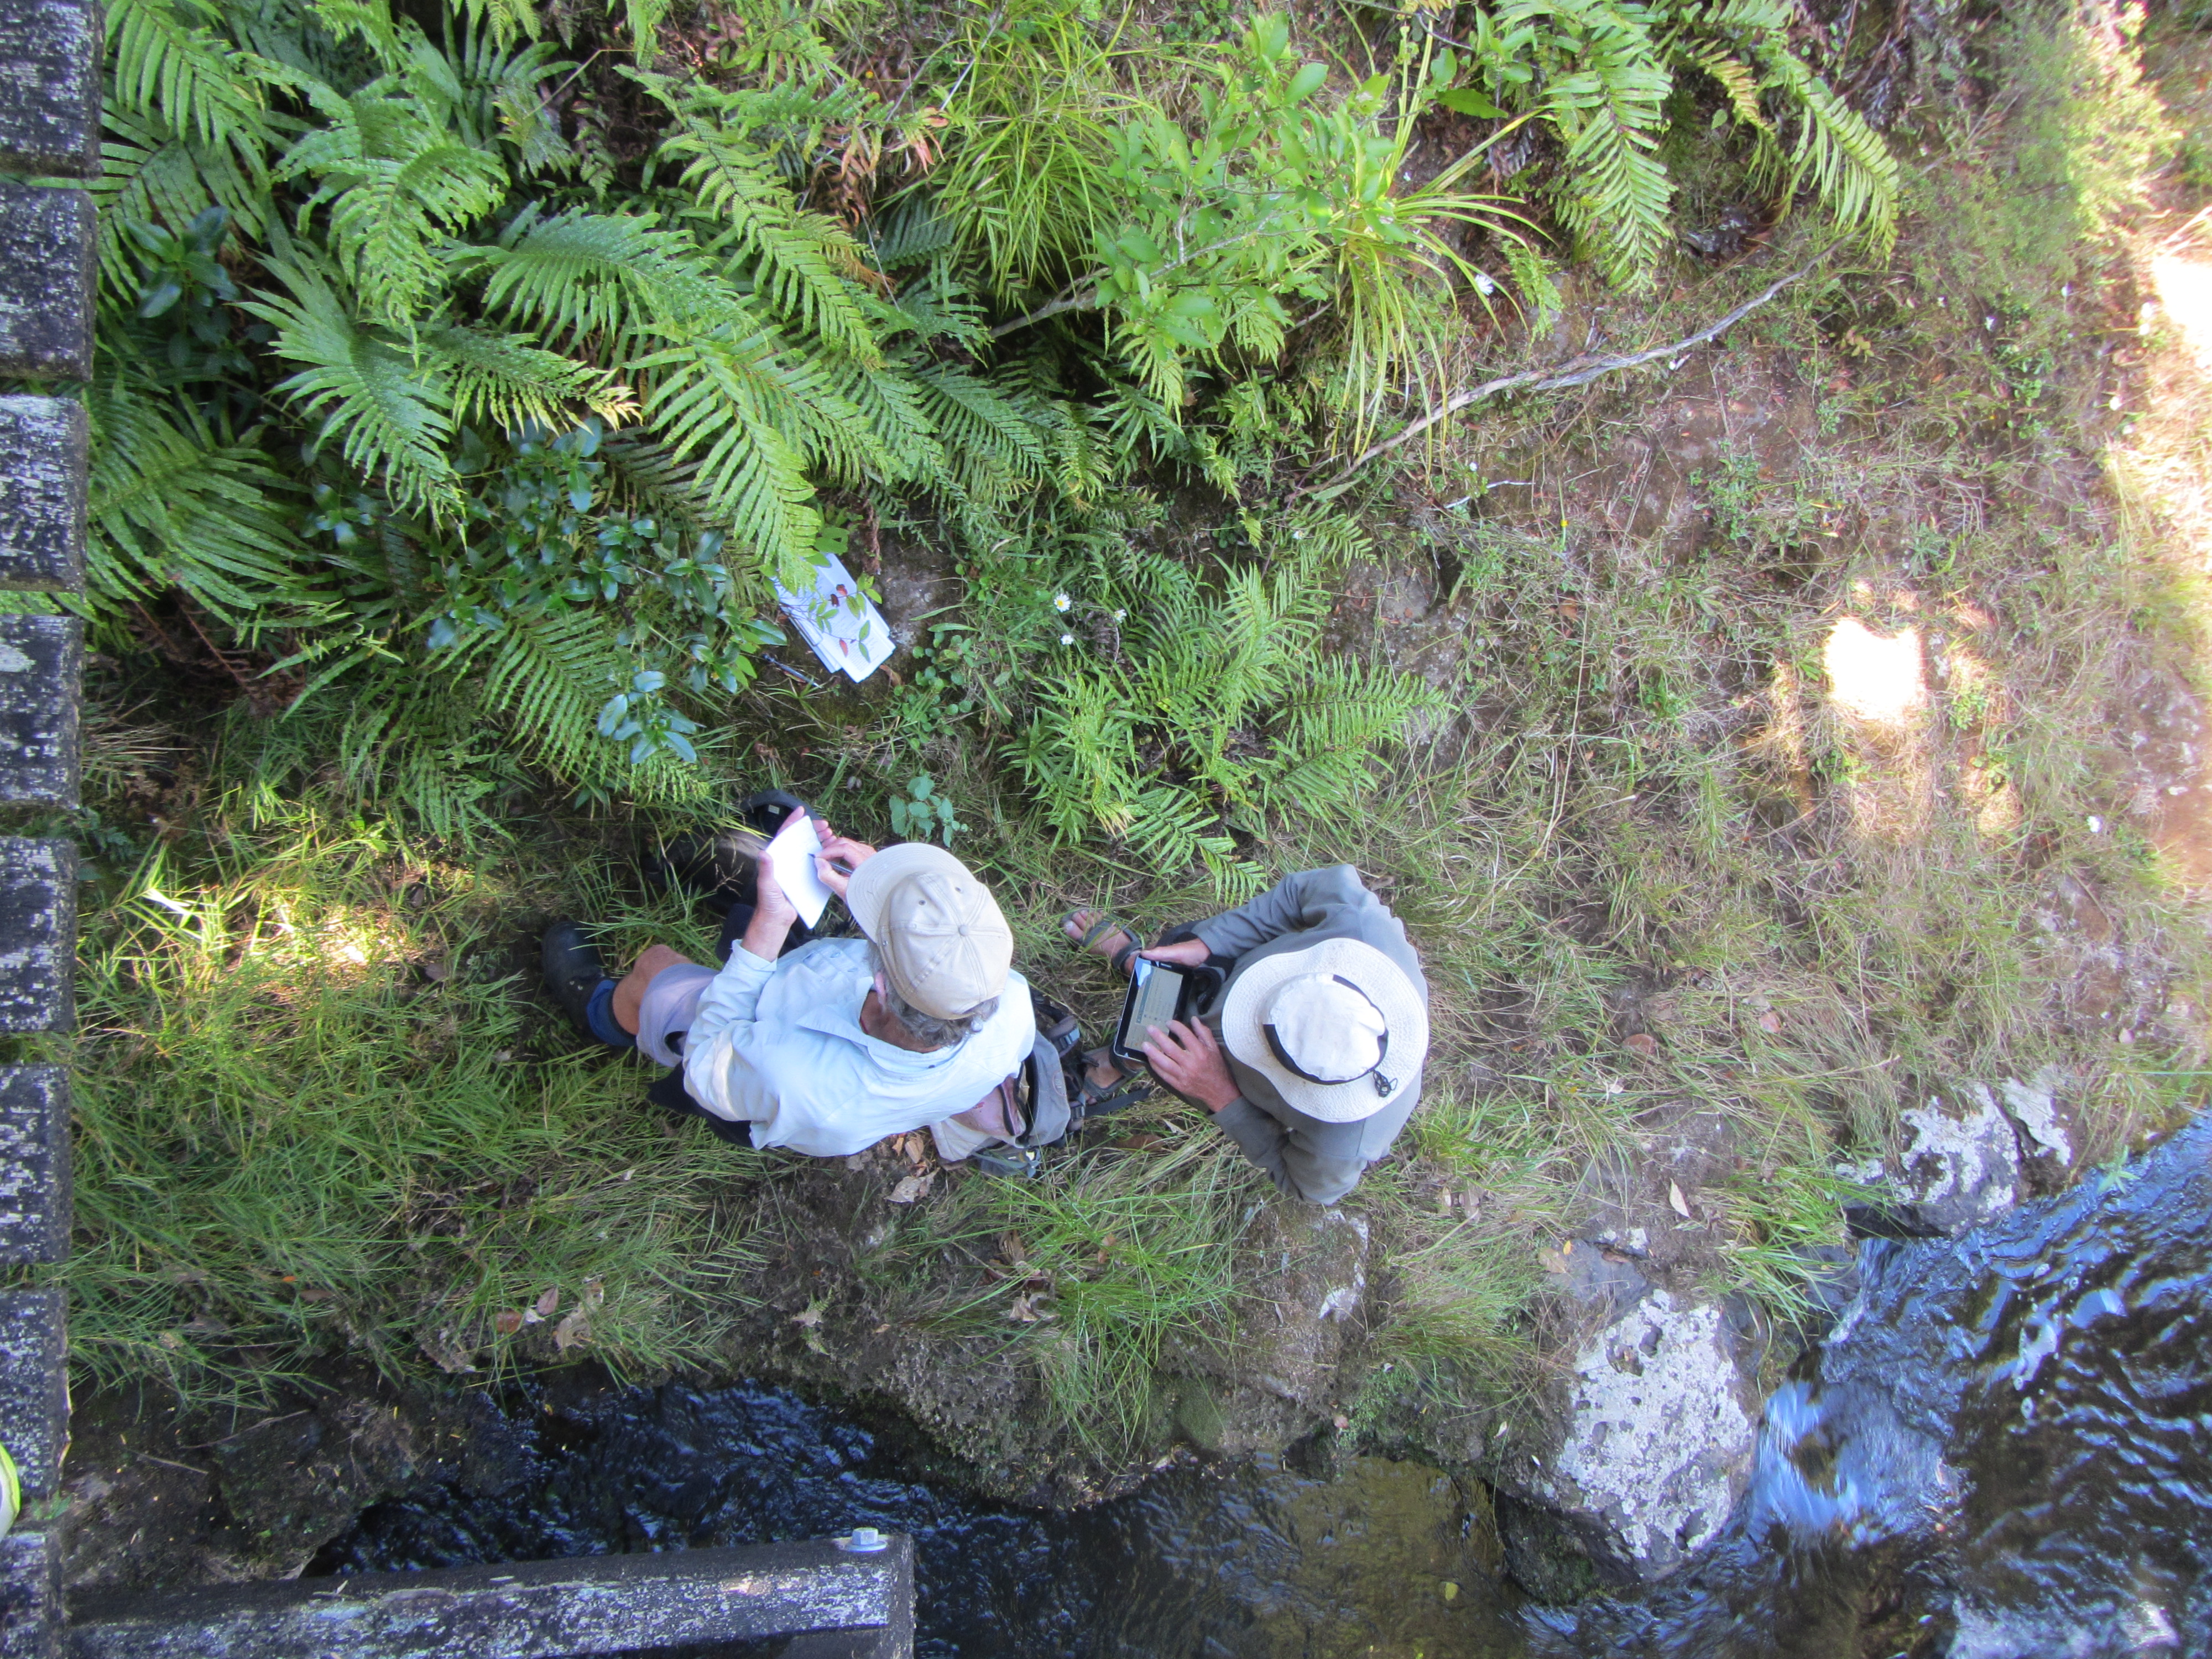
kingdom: Plantae
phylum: Tracheophyta
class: Liliopsida
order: Poales
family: Poaceae
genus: Glyceria
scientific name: Glyceria striata
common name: Fowl manna grass
